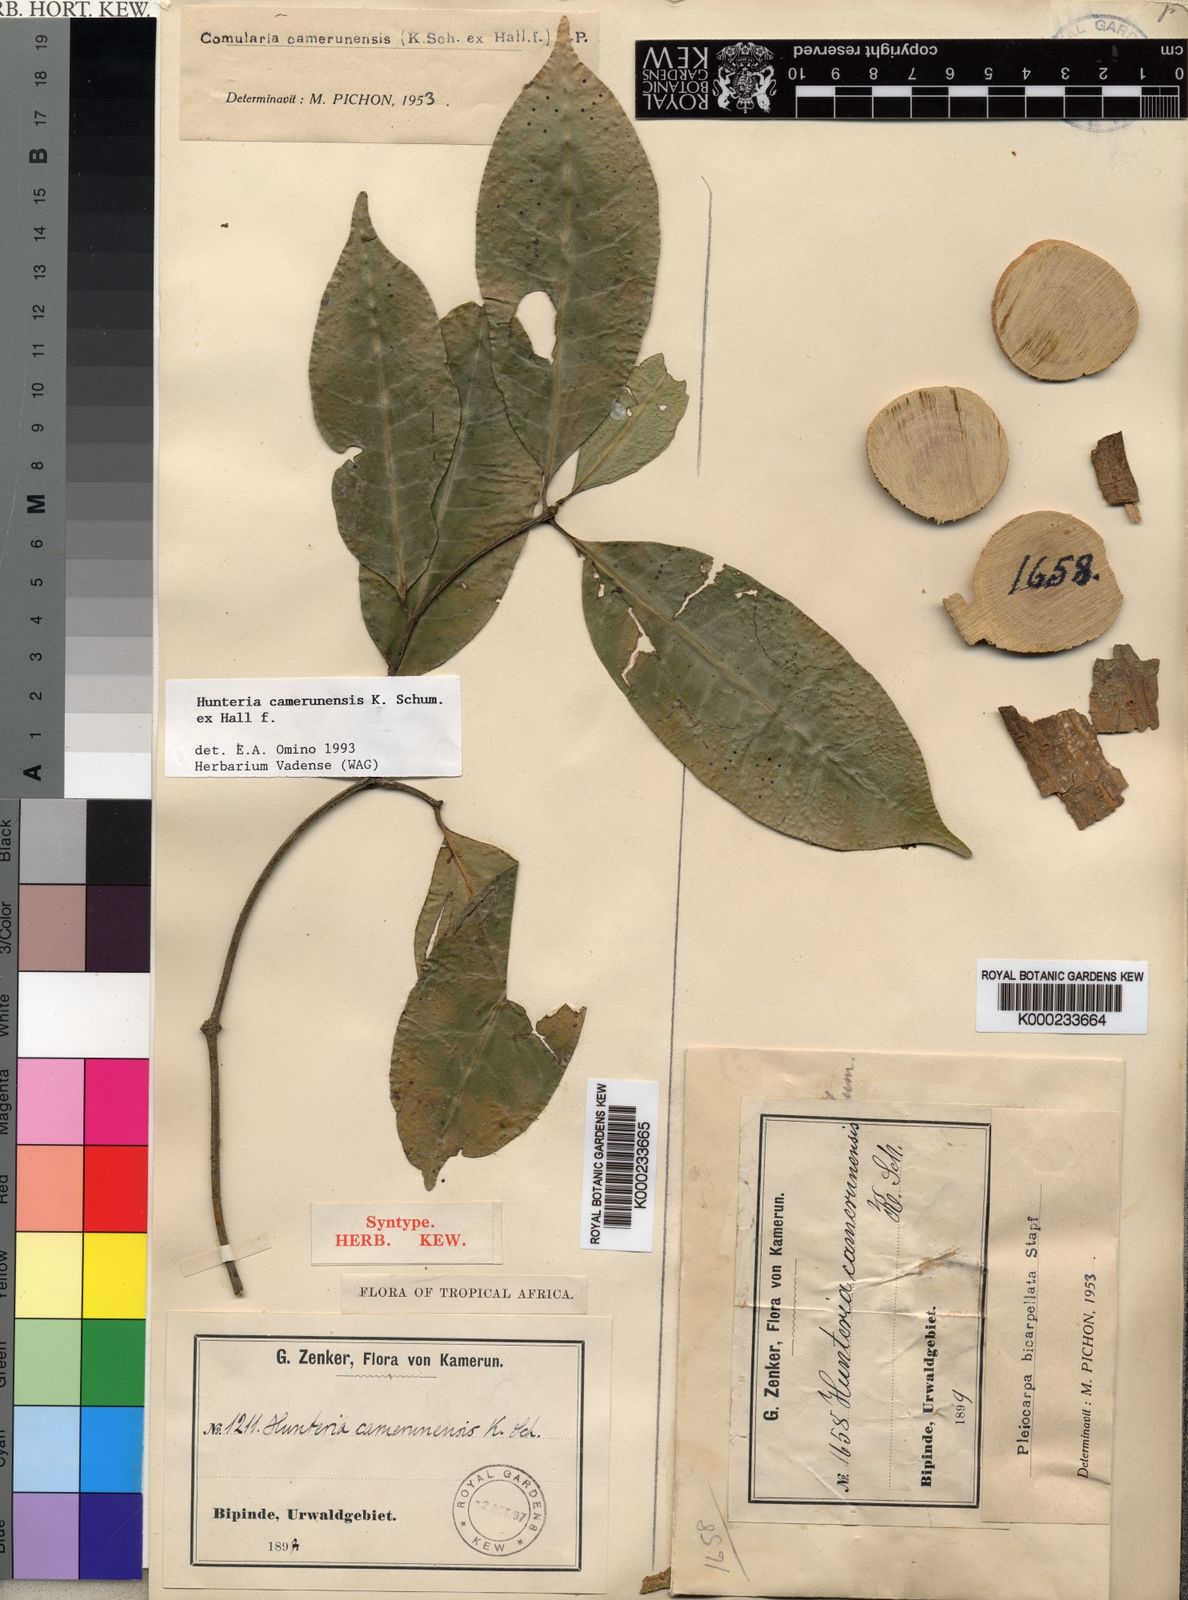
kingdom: Plantae
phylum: Tracheophyta
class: Magnoliopsida
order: Gentianales
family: Apocynaceae
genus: Hunteria
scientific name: Hunteria camerunensis
